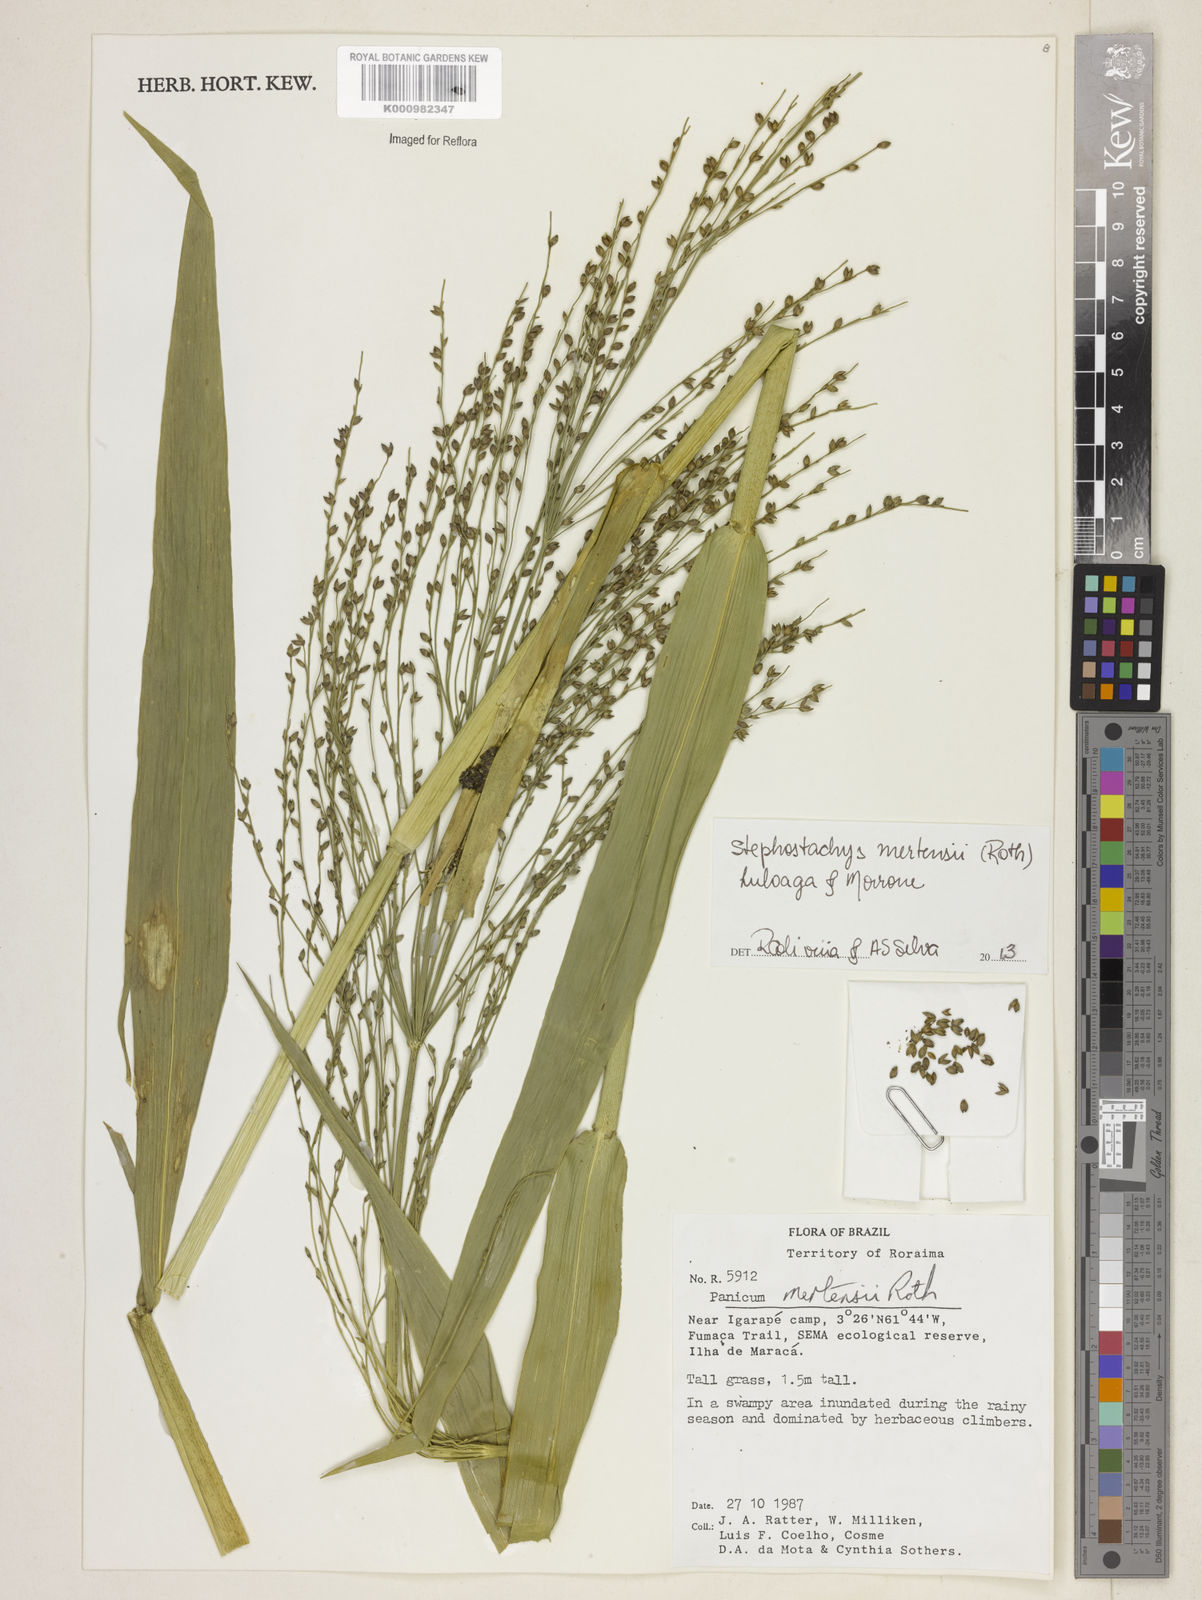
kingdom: Plantae
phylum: Tracheophyta
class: Liliopsida
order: Poales
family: Poaceae
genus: Stephostachys
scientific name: Stephostachys mertensii
